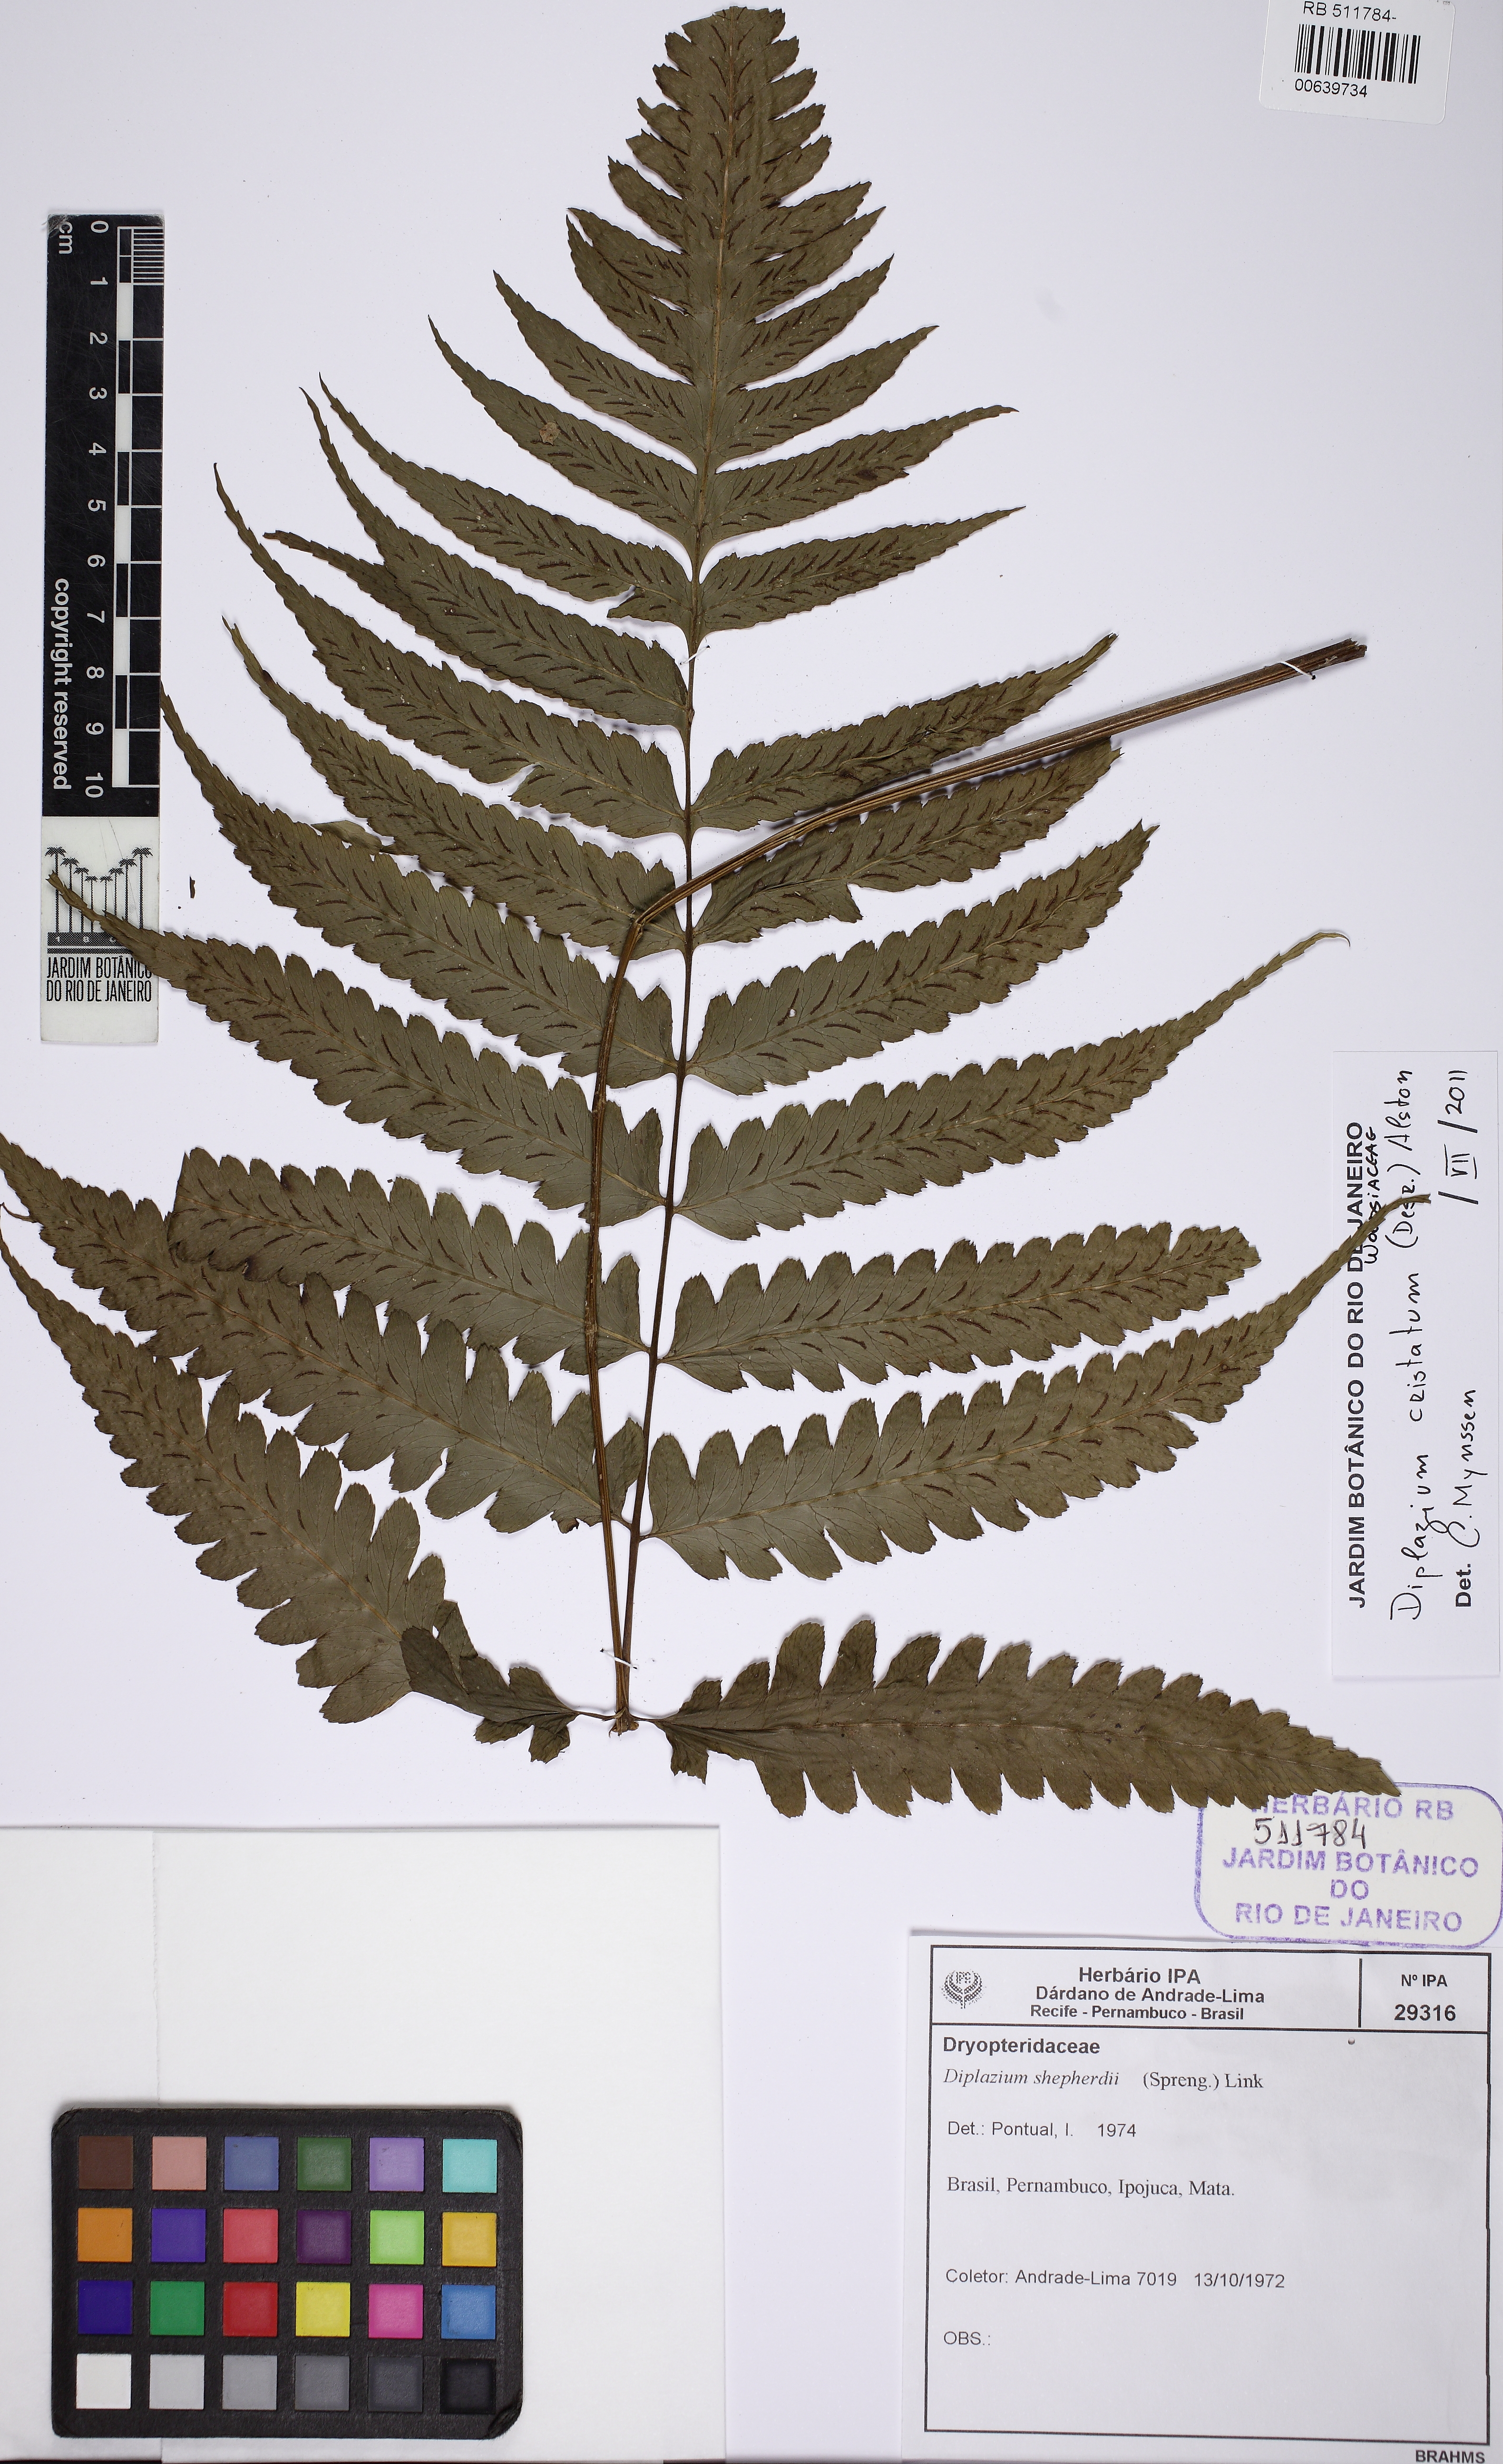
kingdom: Plantae
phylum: Tracheophyta
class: Polypodiopsida
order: Polypodiales
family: Athyriaceae
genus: Diplazium
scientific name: Diplazium cristatum
